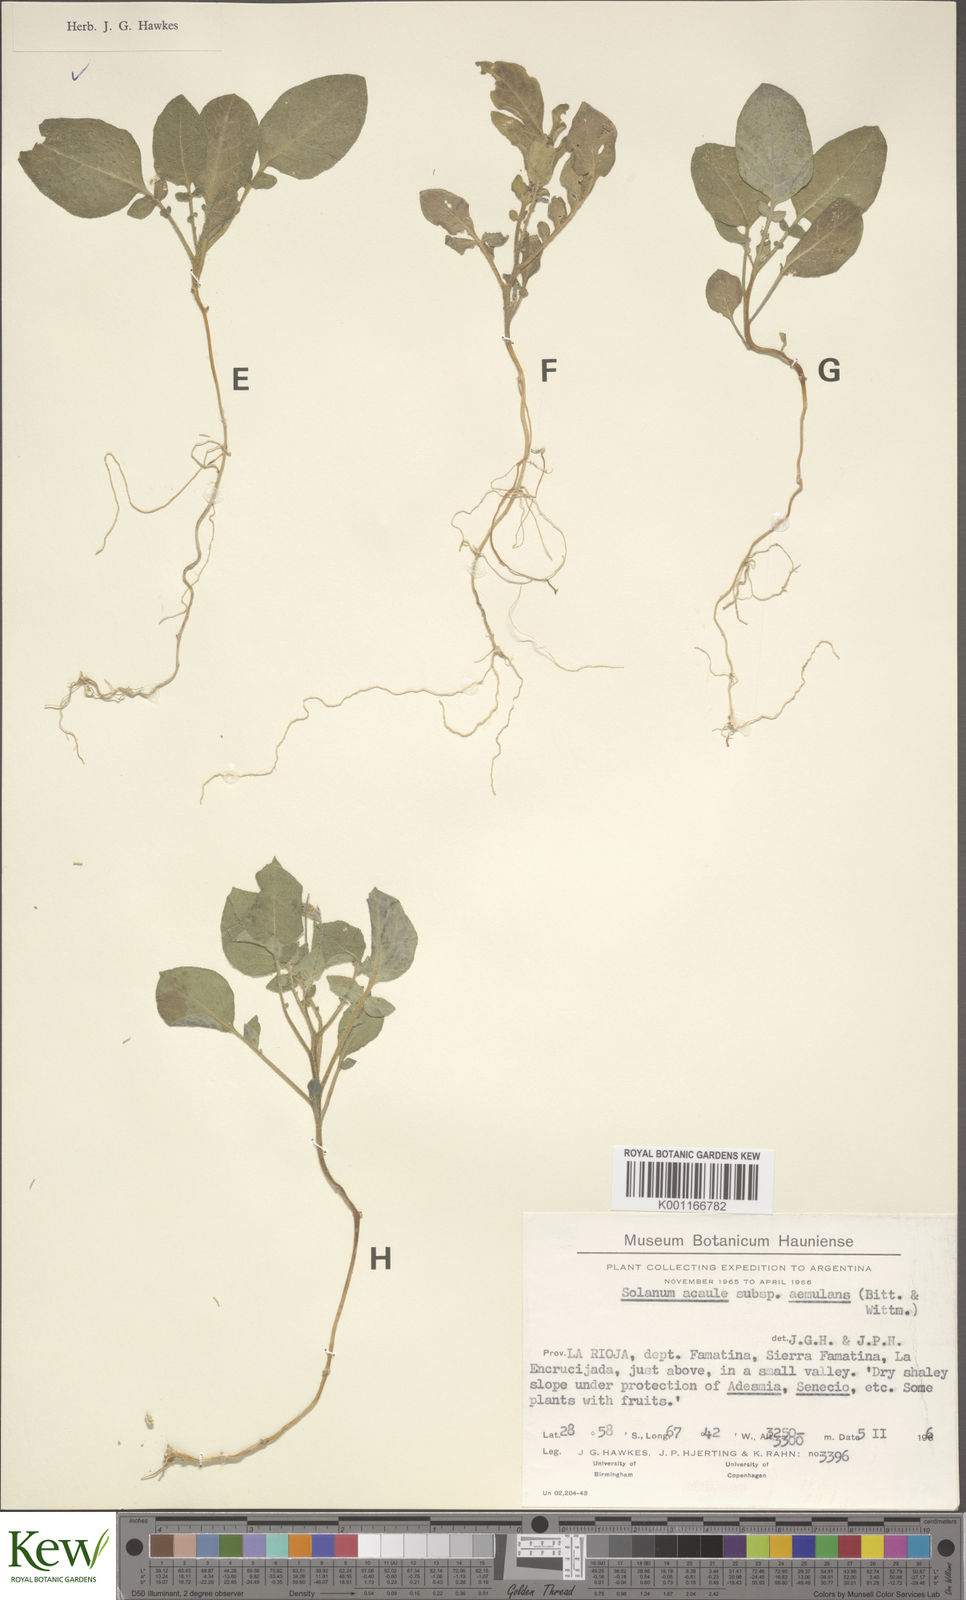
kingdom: Plantae
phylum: Tracheophyta
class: Magnoliopsida
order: Solanales
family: Solanaceae
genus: Solanum
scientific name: Solanum aemulans
